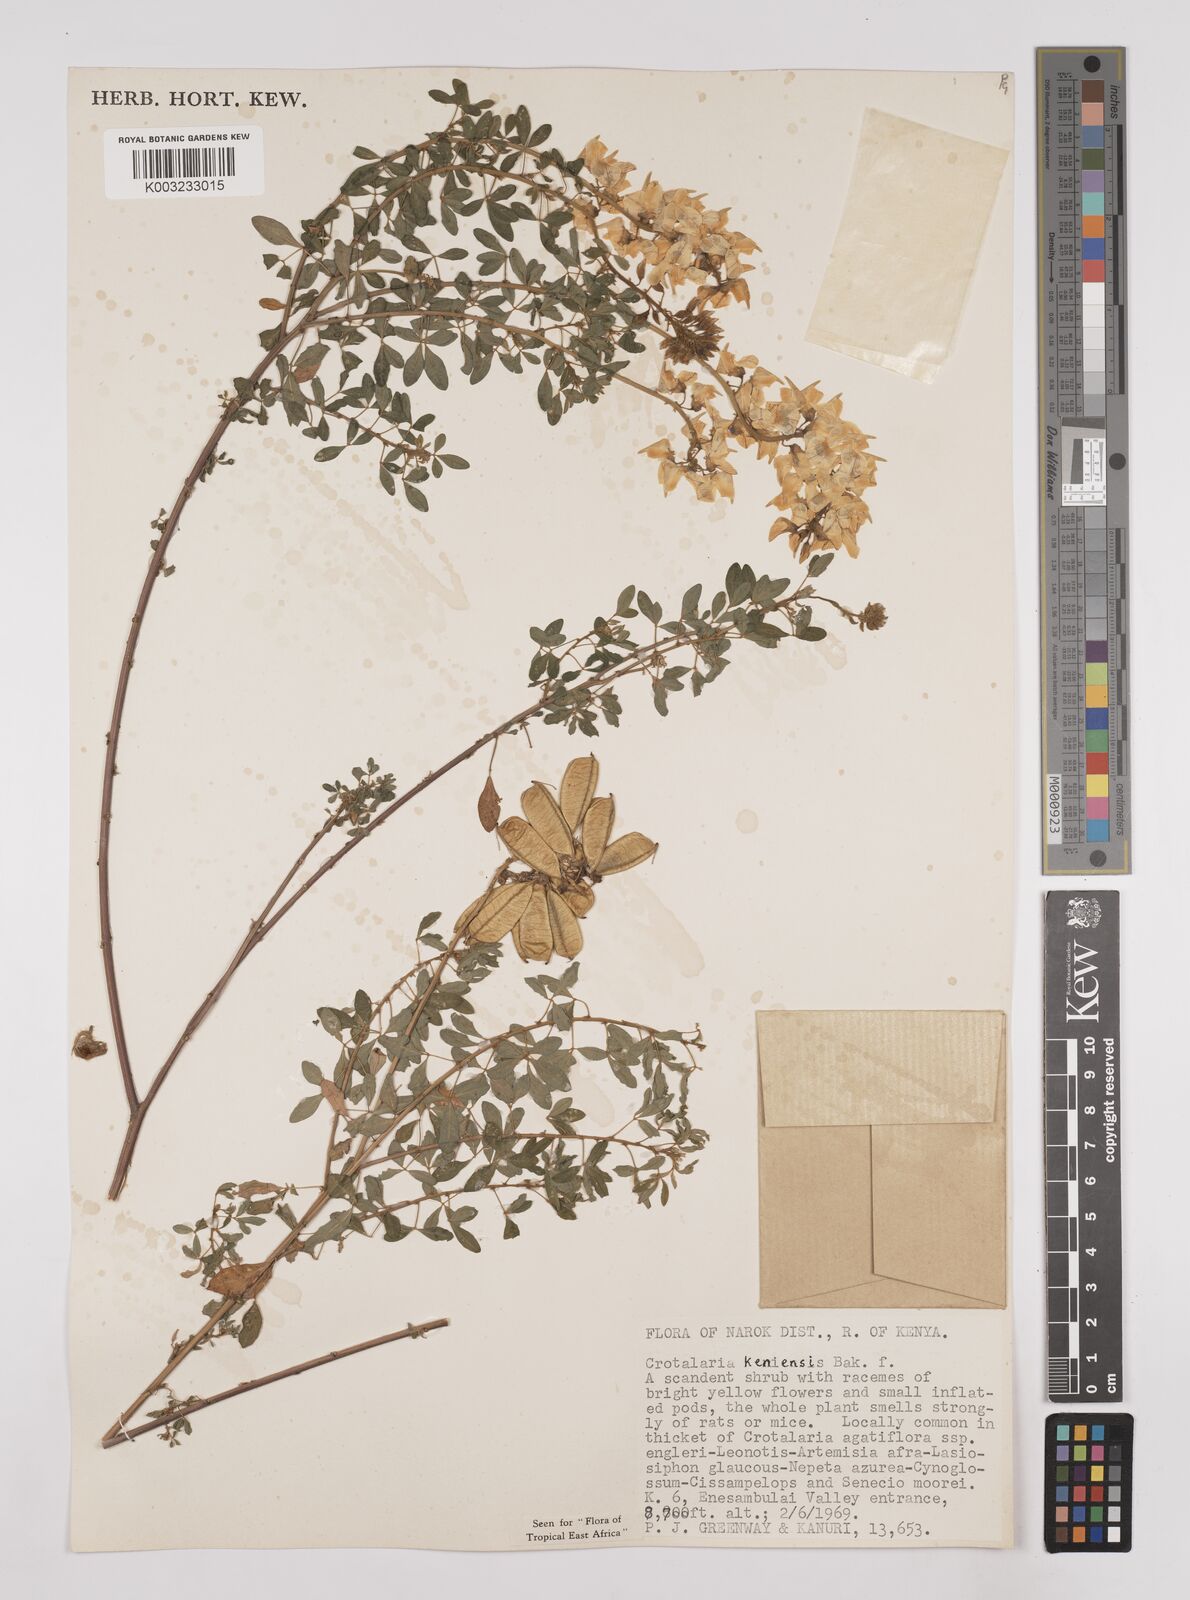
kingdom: Plantae
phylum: Tracheophyta
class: Magnoliopsida
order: Fabales
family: Fabaceae
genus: Crotalaria
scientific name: Crotalaria keniensis
